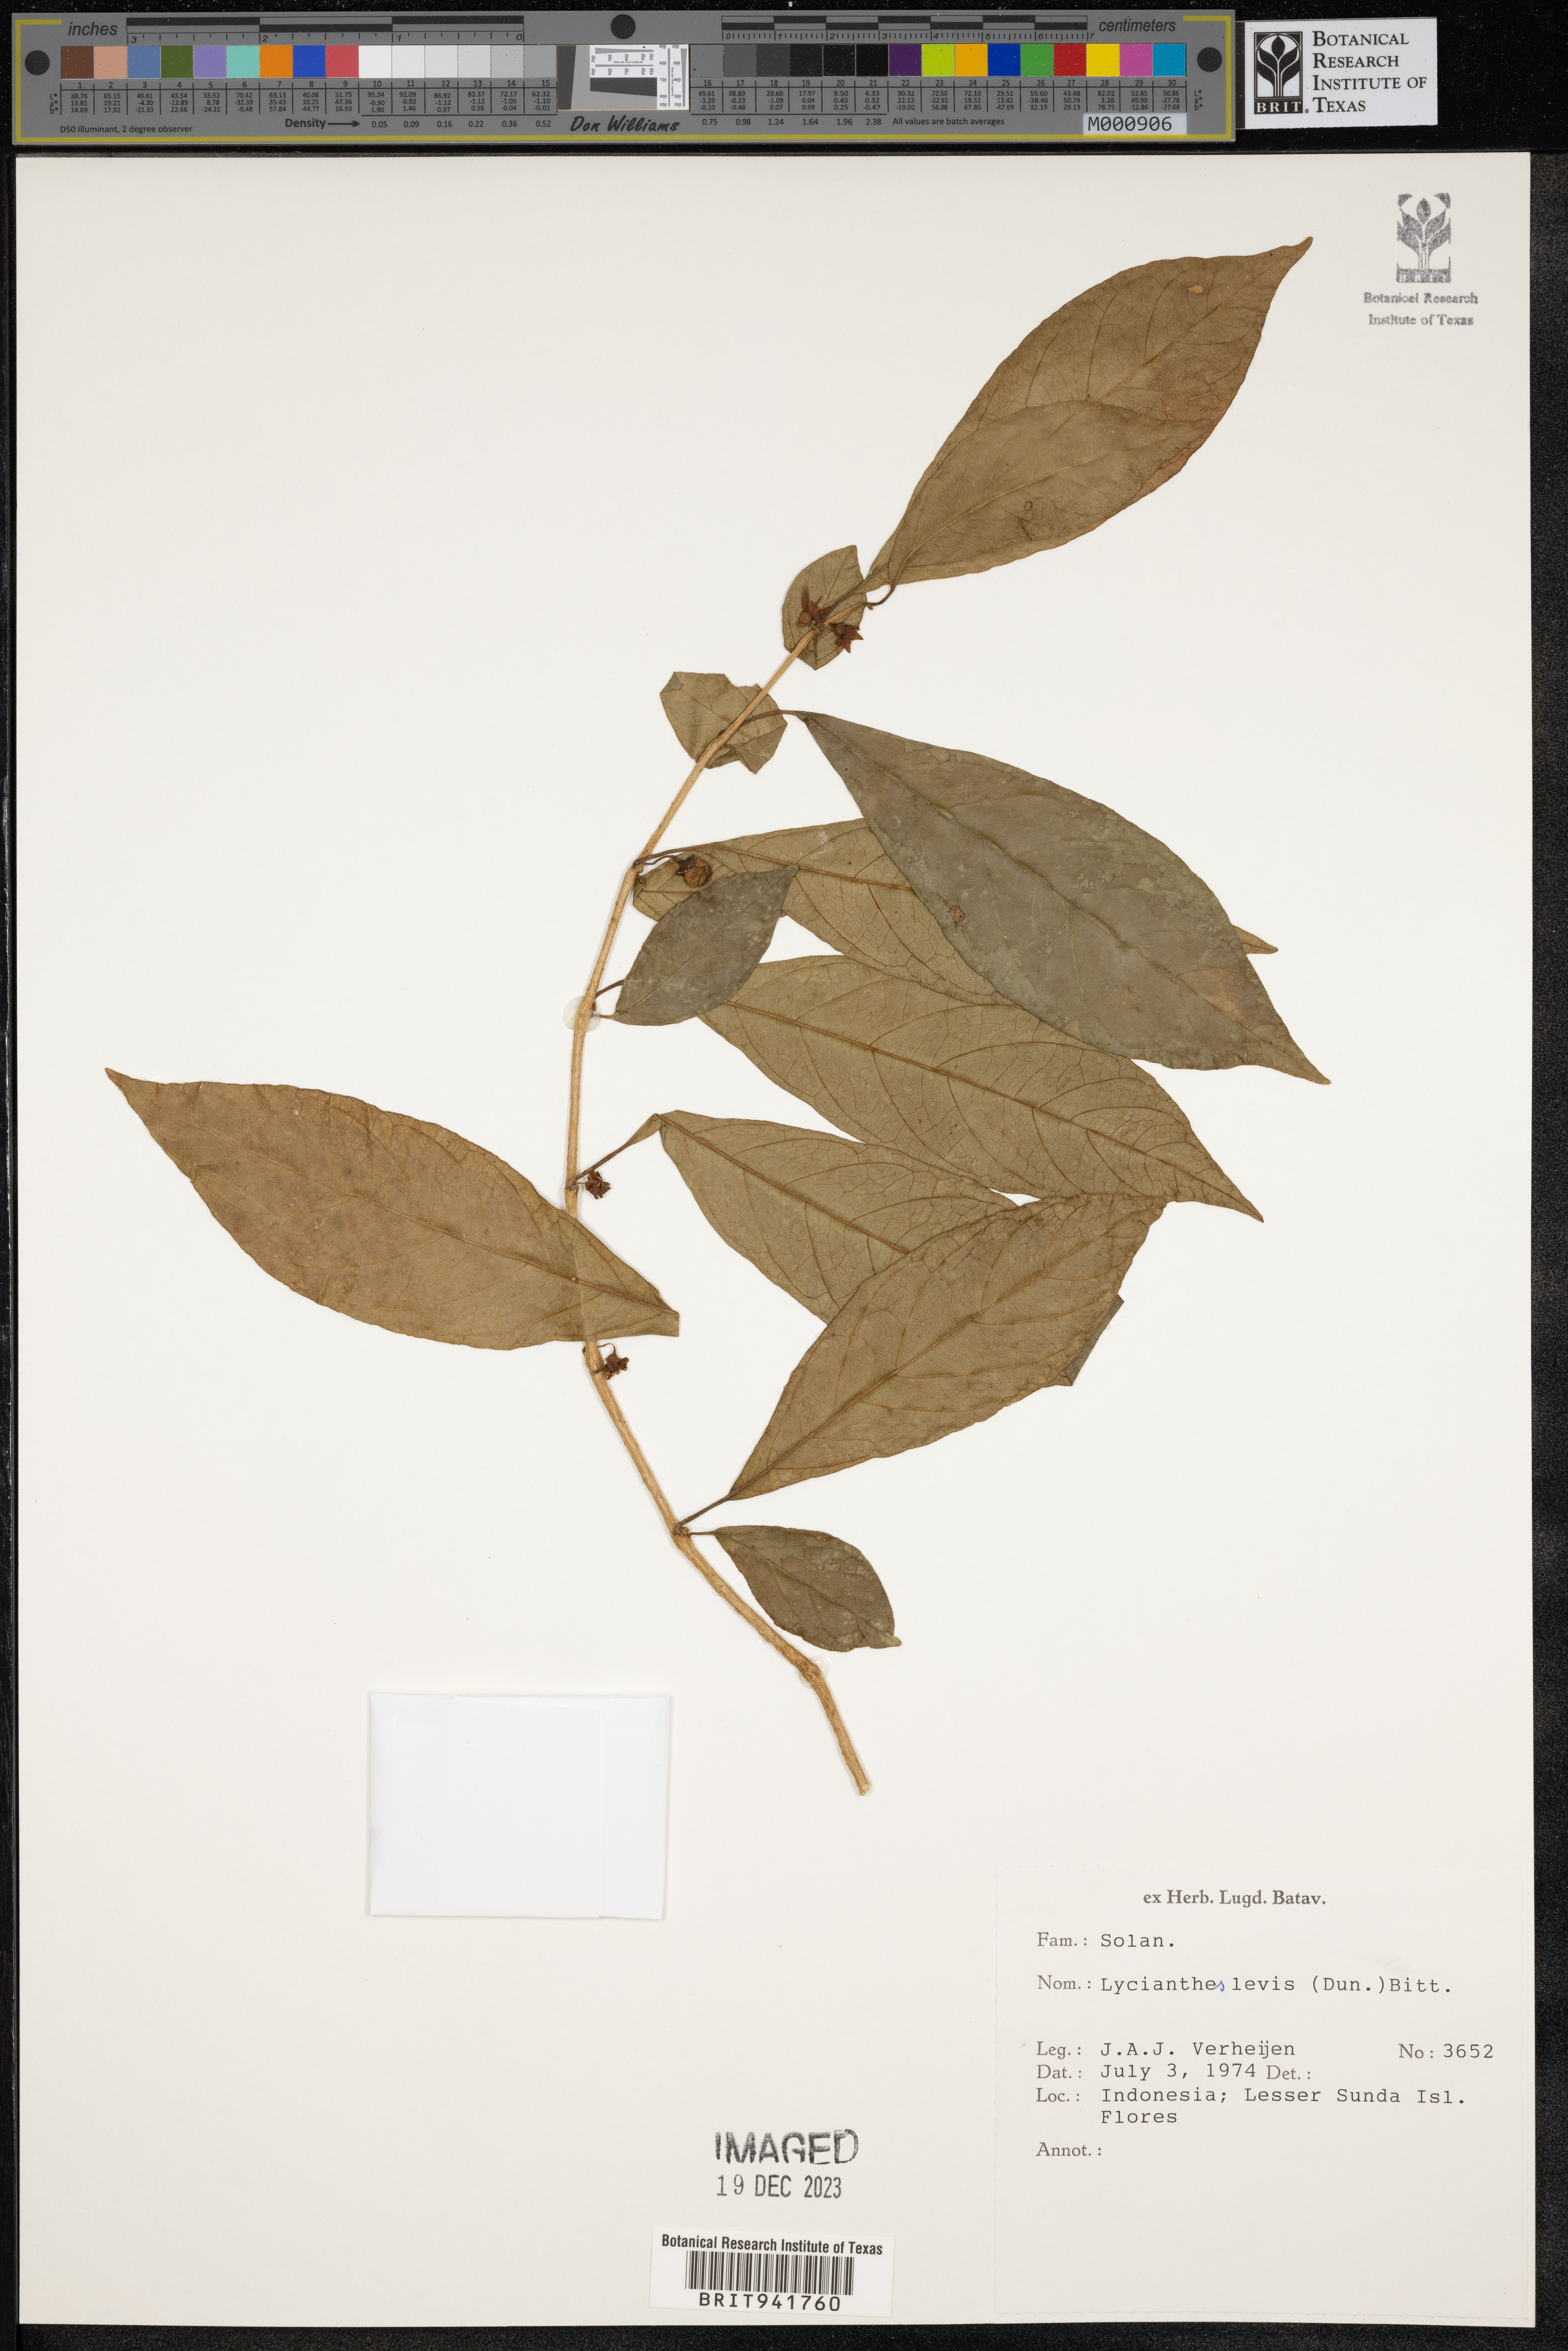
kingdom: Plantae
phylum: Tracheophyta
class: Magnoliopsida
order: Solanales
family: Solanaceae
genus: Lycianthes
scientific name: Lycianthes
